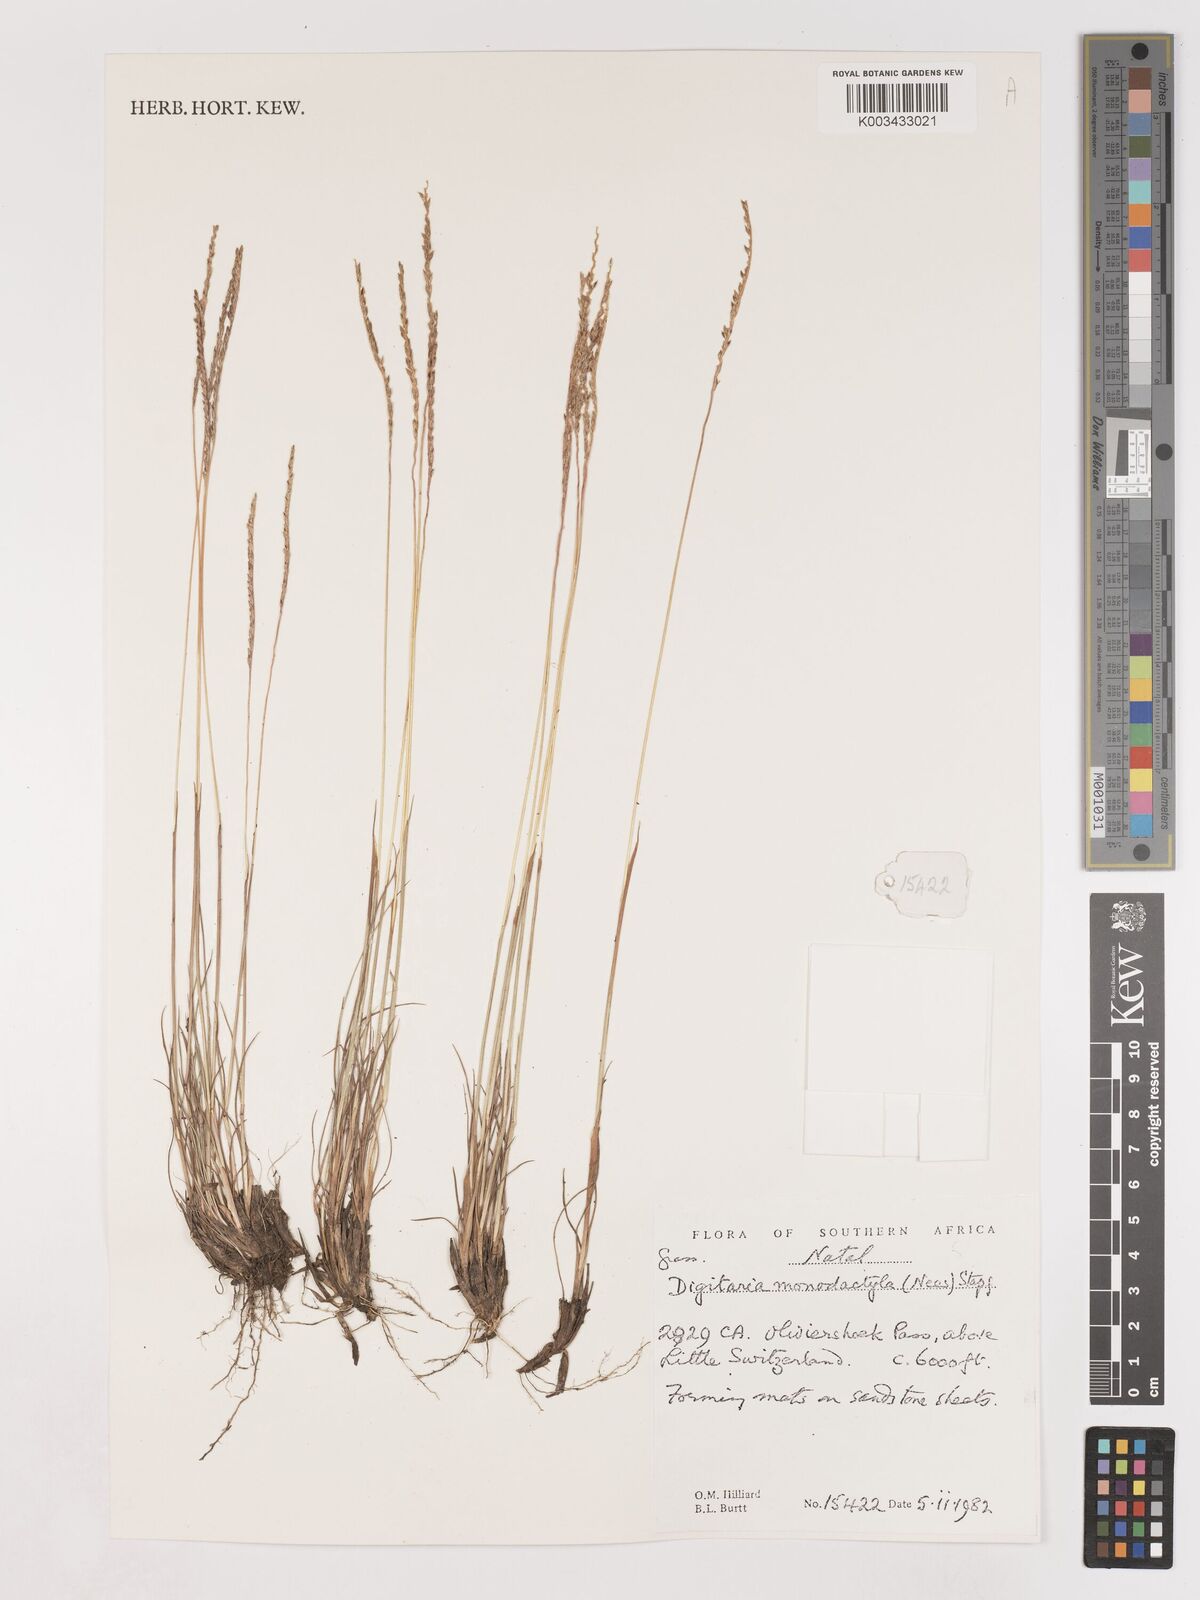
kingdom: Plantae
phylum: Tracheophyta
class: Liliopsida
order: Poales
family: Poaceae
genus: Digitaria
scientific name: Digitaria monodactyla
